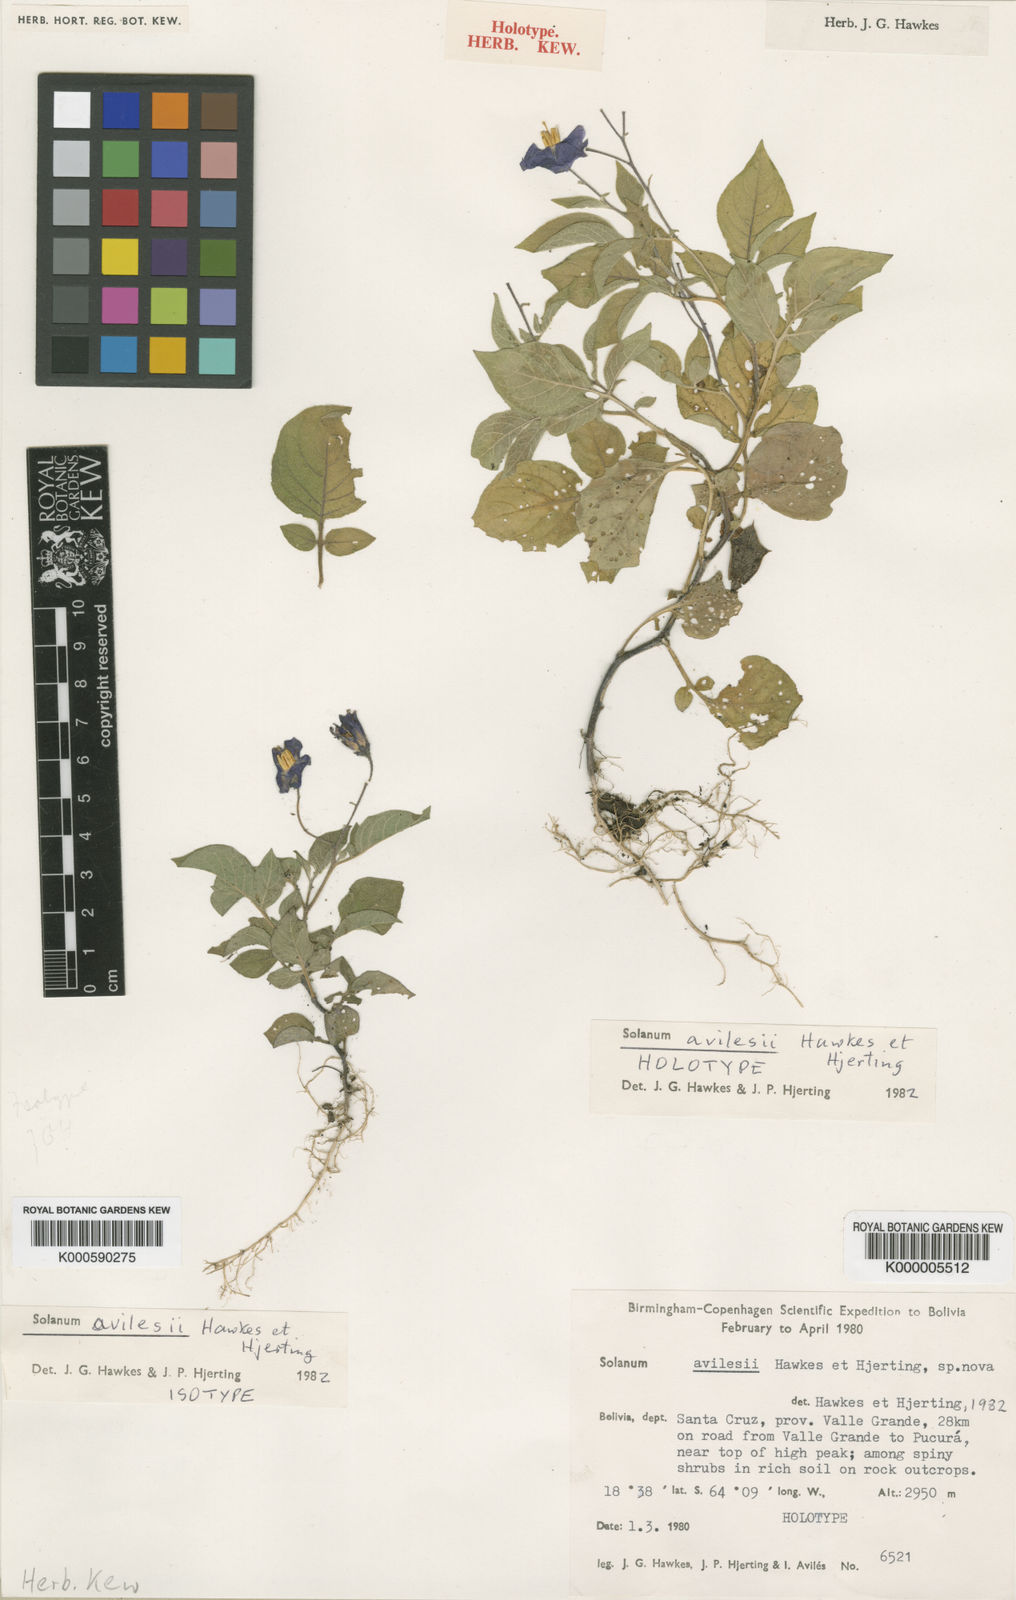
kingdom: Plantae
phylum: Tracheophyta
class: Magnoliopsida
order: Solanales
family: Solanaceae
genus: Solanum
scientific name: Solanum brevicaule
